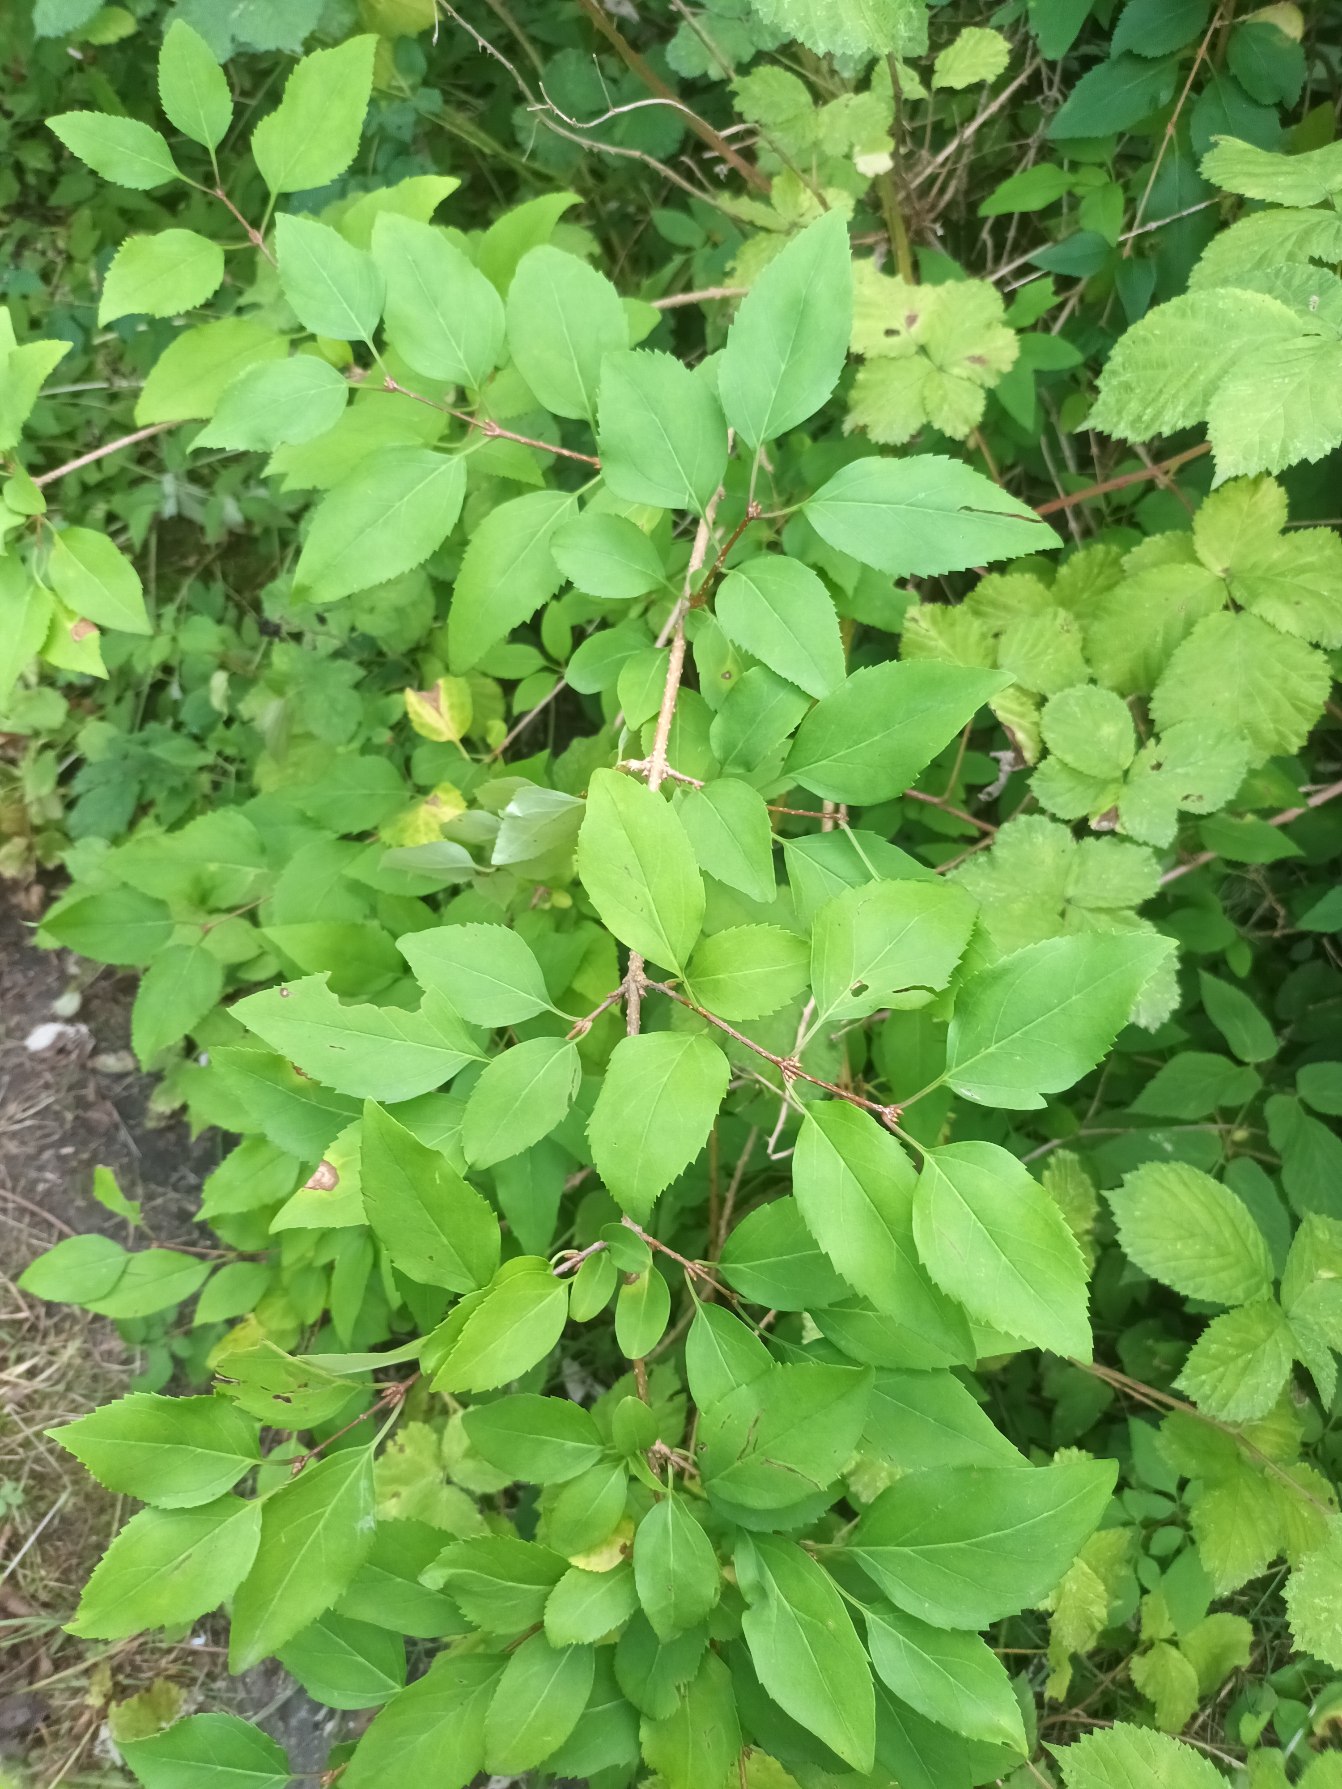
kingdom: Plantae
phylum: Tracheophyta
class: Magnoliopsida
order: Lamiales
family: Oleaceae
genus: Forsythia
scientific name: Forsythia intermedia
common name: Have-forsythia
